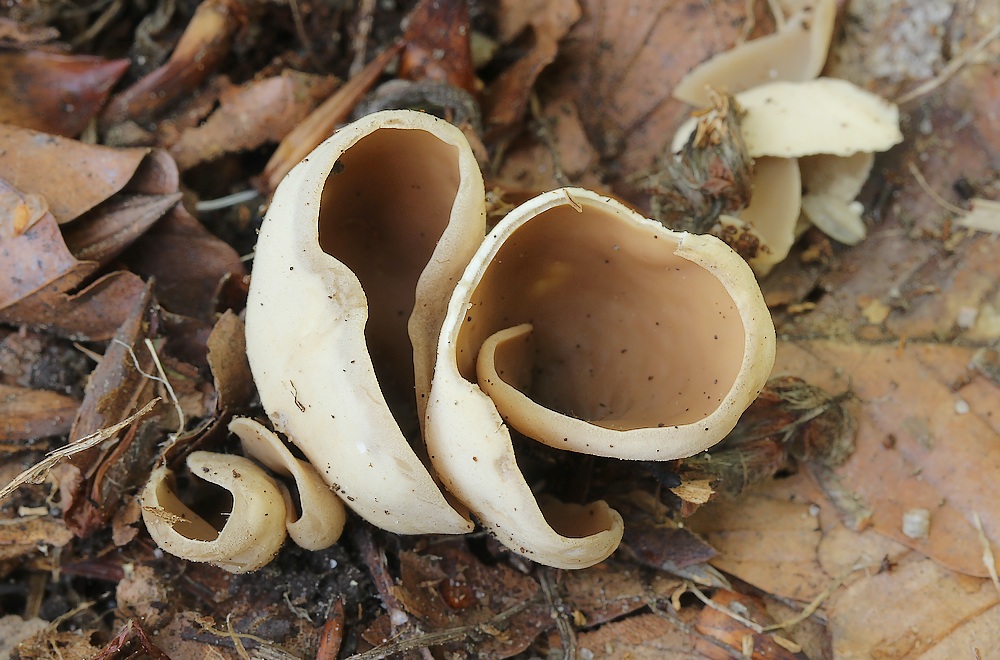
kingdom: Fungi
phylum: Ascomycota
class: Pezizomycetes
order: Pezizales
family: Otideaceae
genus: Otidea
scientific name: Otidea alutacea
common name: læder-ørebæger
